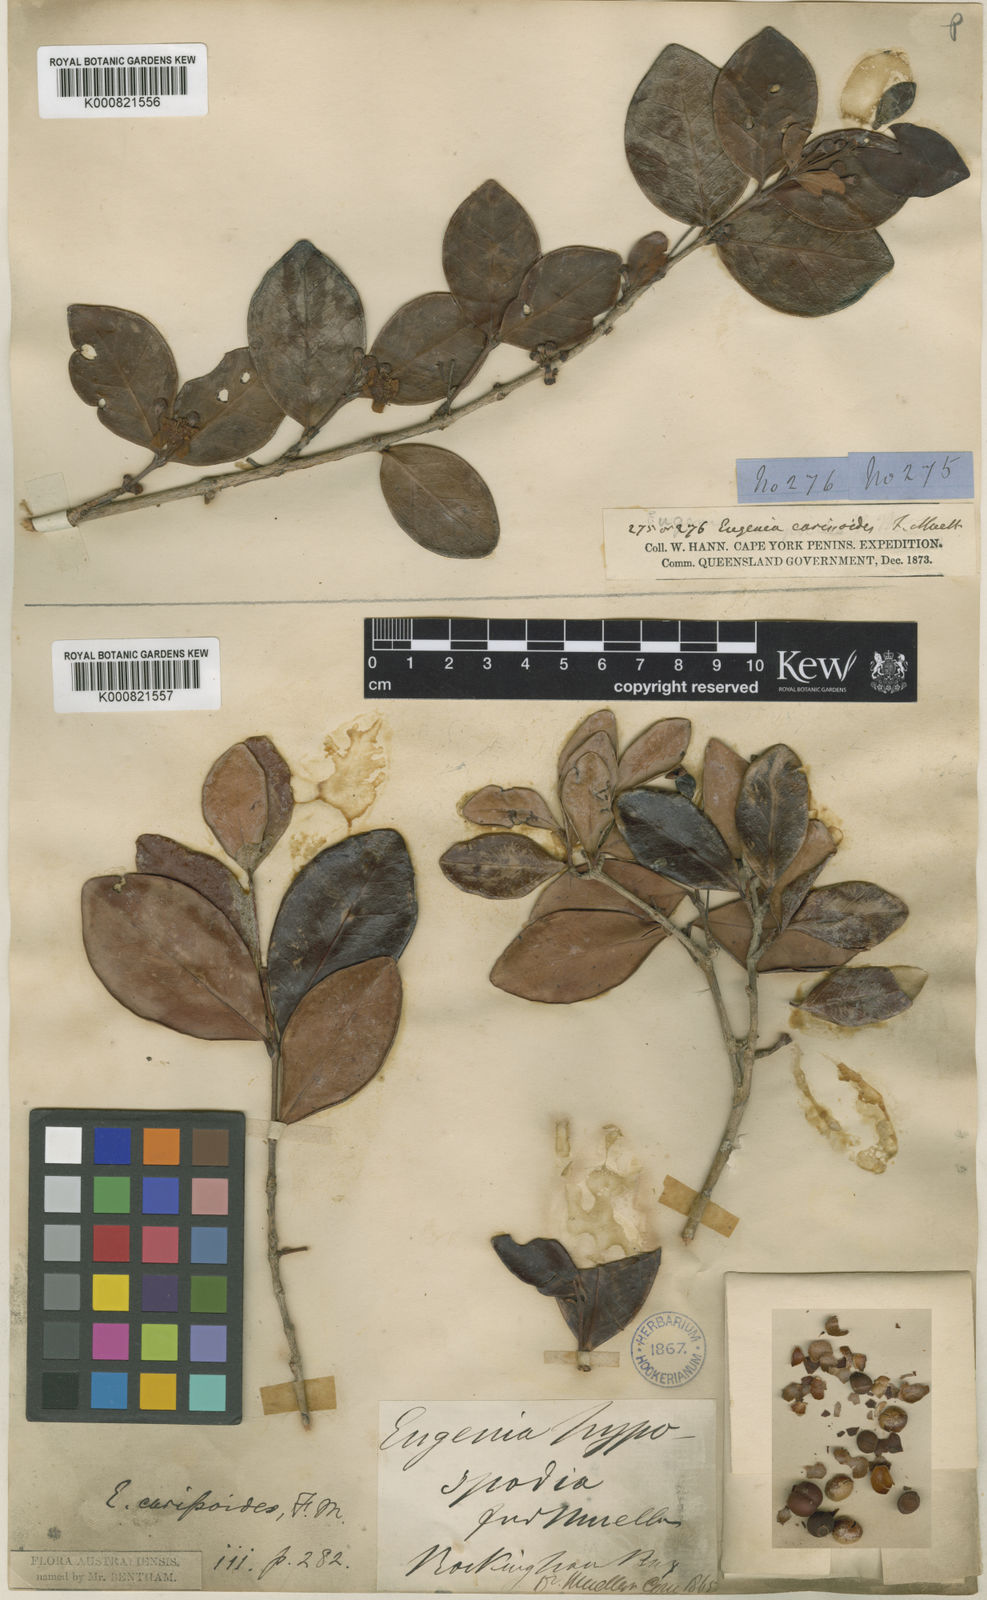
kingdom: Plantae
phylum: Tracheophyta
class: Magnoliopsida
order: Myrtales
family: Myrtaceae
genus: Eugenia
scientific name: Eugenia reinwardtiana
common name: Cedar bay-cherry
